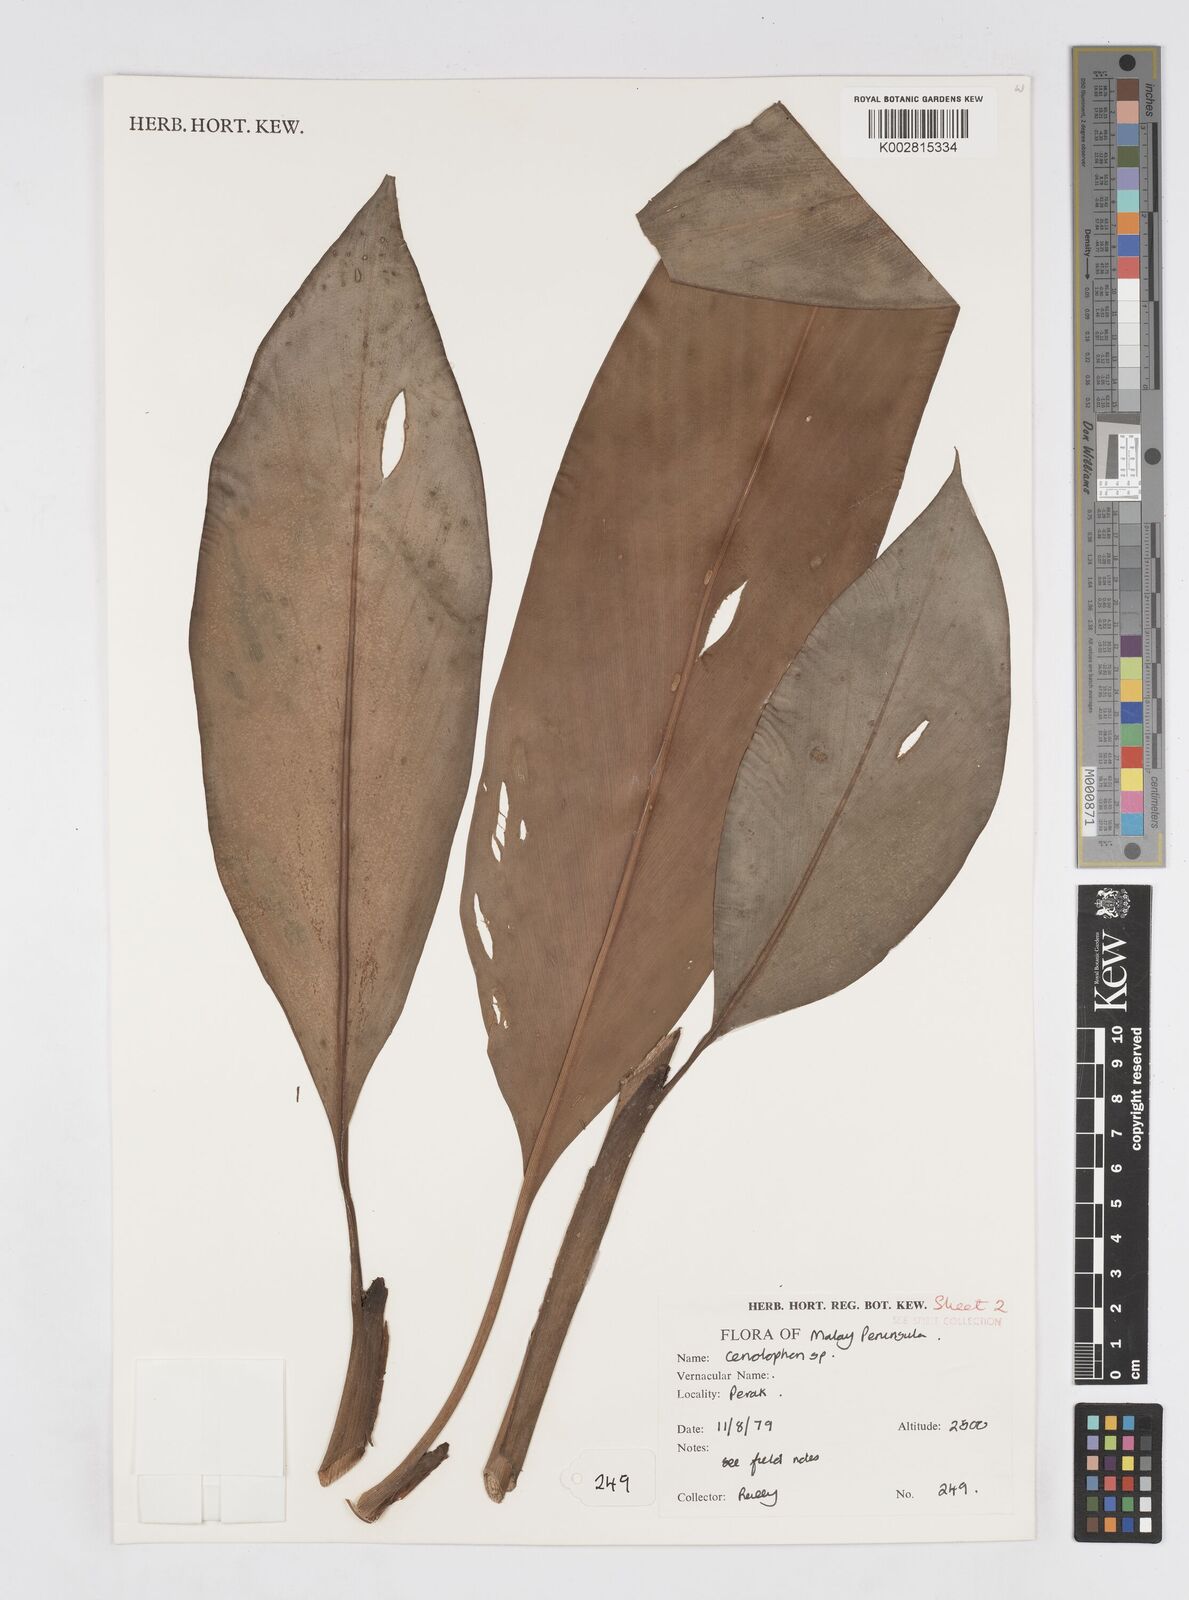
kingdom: Plantae
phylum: Tracheophyta
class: Liliopsida
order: Zingiberales
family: Zingiberaceae
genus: Alpinia
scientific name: Alpinia
